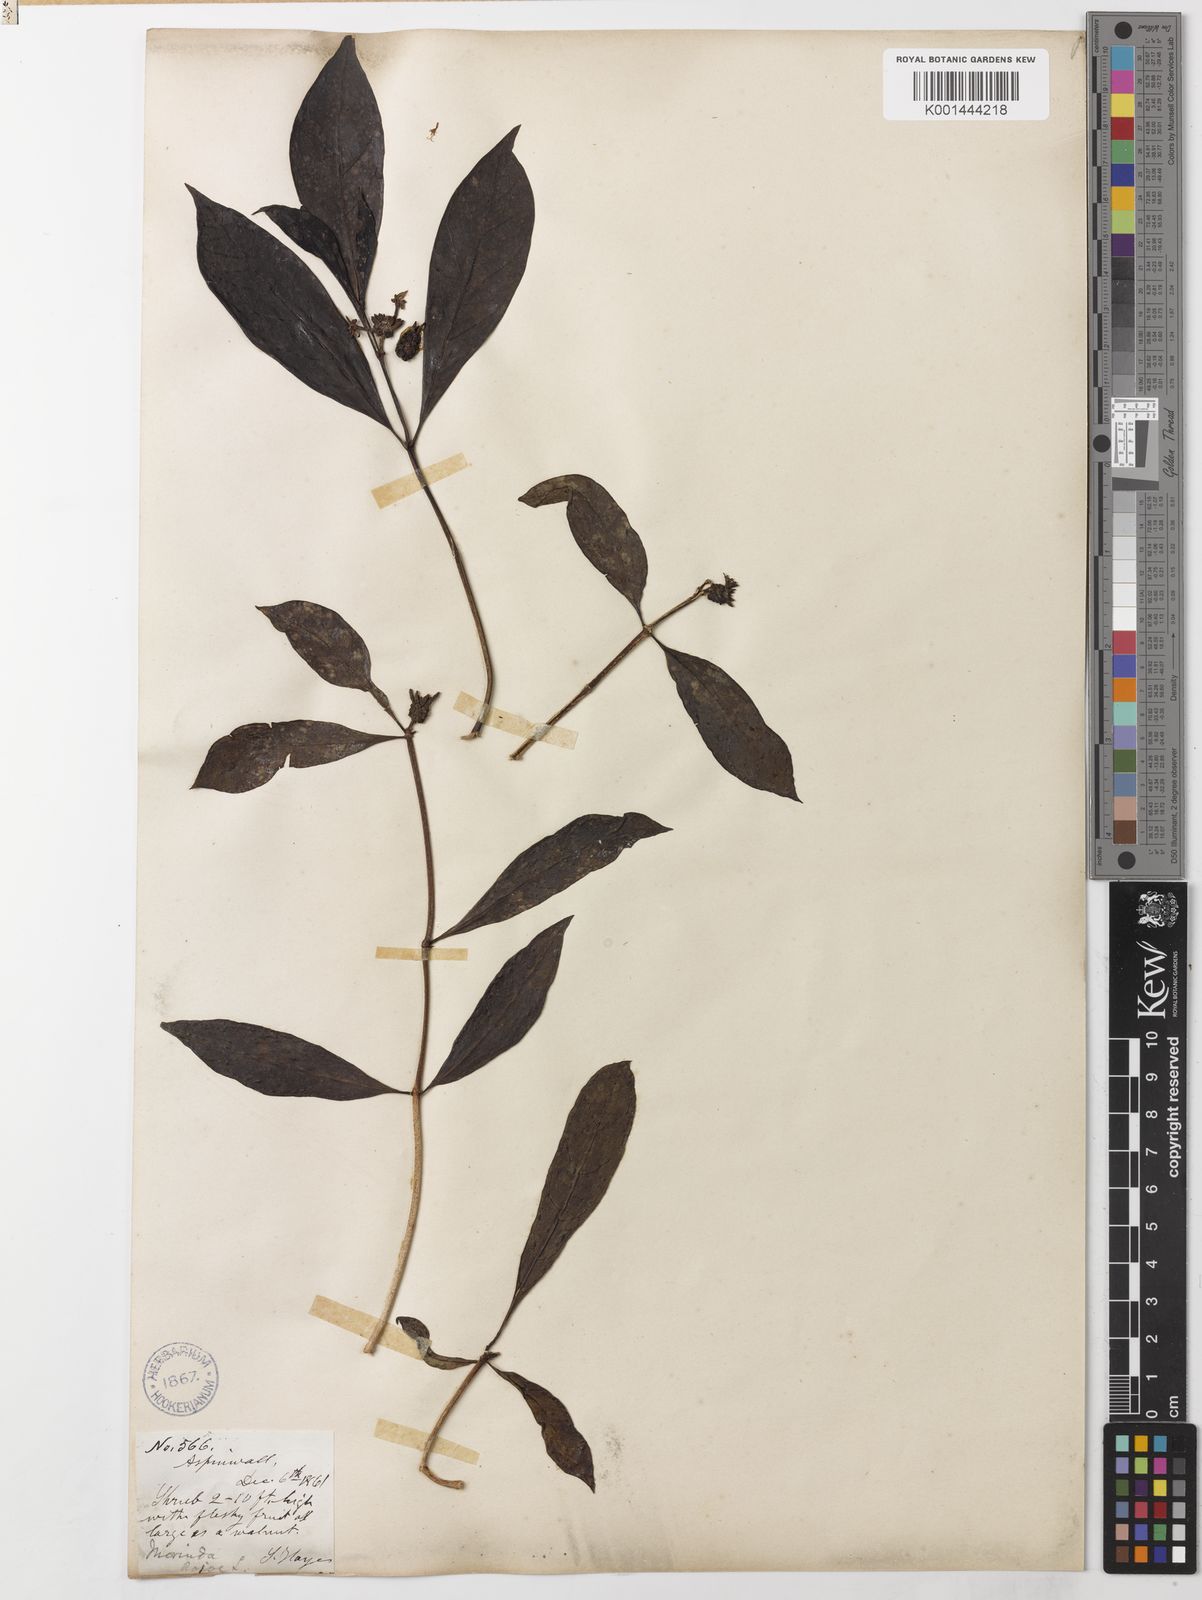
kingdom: Plantae
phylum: Tracheophyta
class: Magnoliopsida
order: Gentianales
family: Rubiaceae
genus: Morinda
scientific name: Morinda royoc
